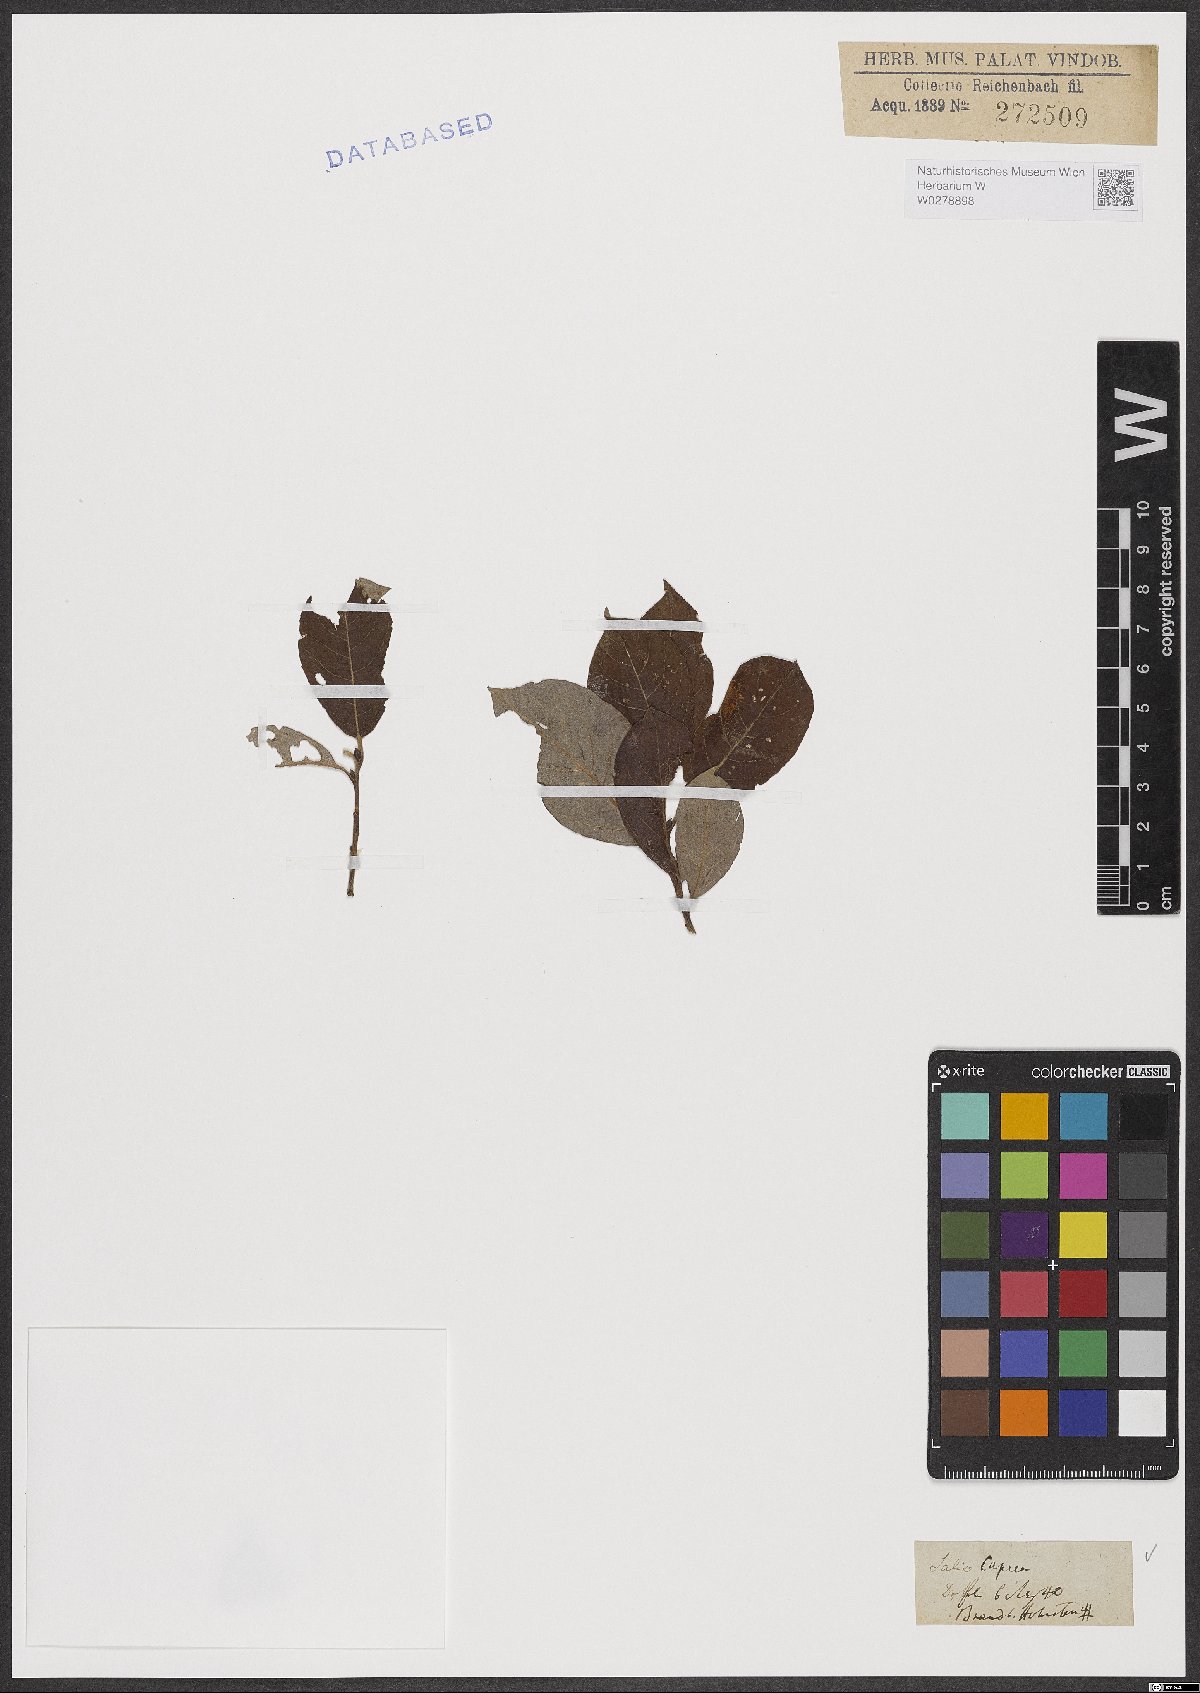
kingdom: Plantae
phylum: Tracheophyta
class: Magnoliopsida
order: Malpighiales
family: Salicaceae
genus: Salix
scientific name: Salix caprea
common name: Goat willow
